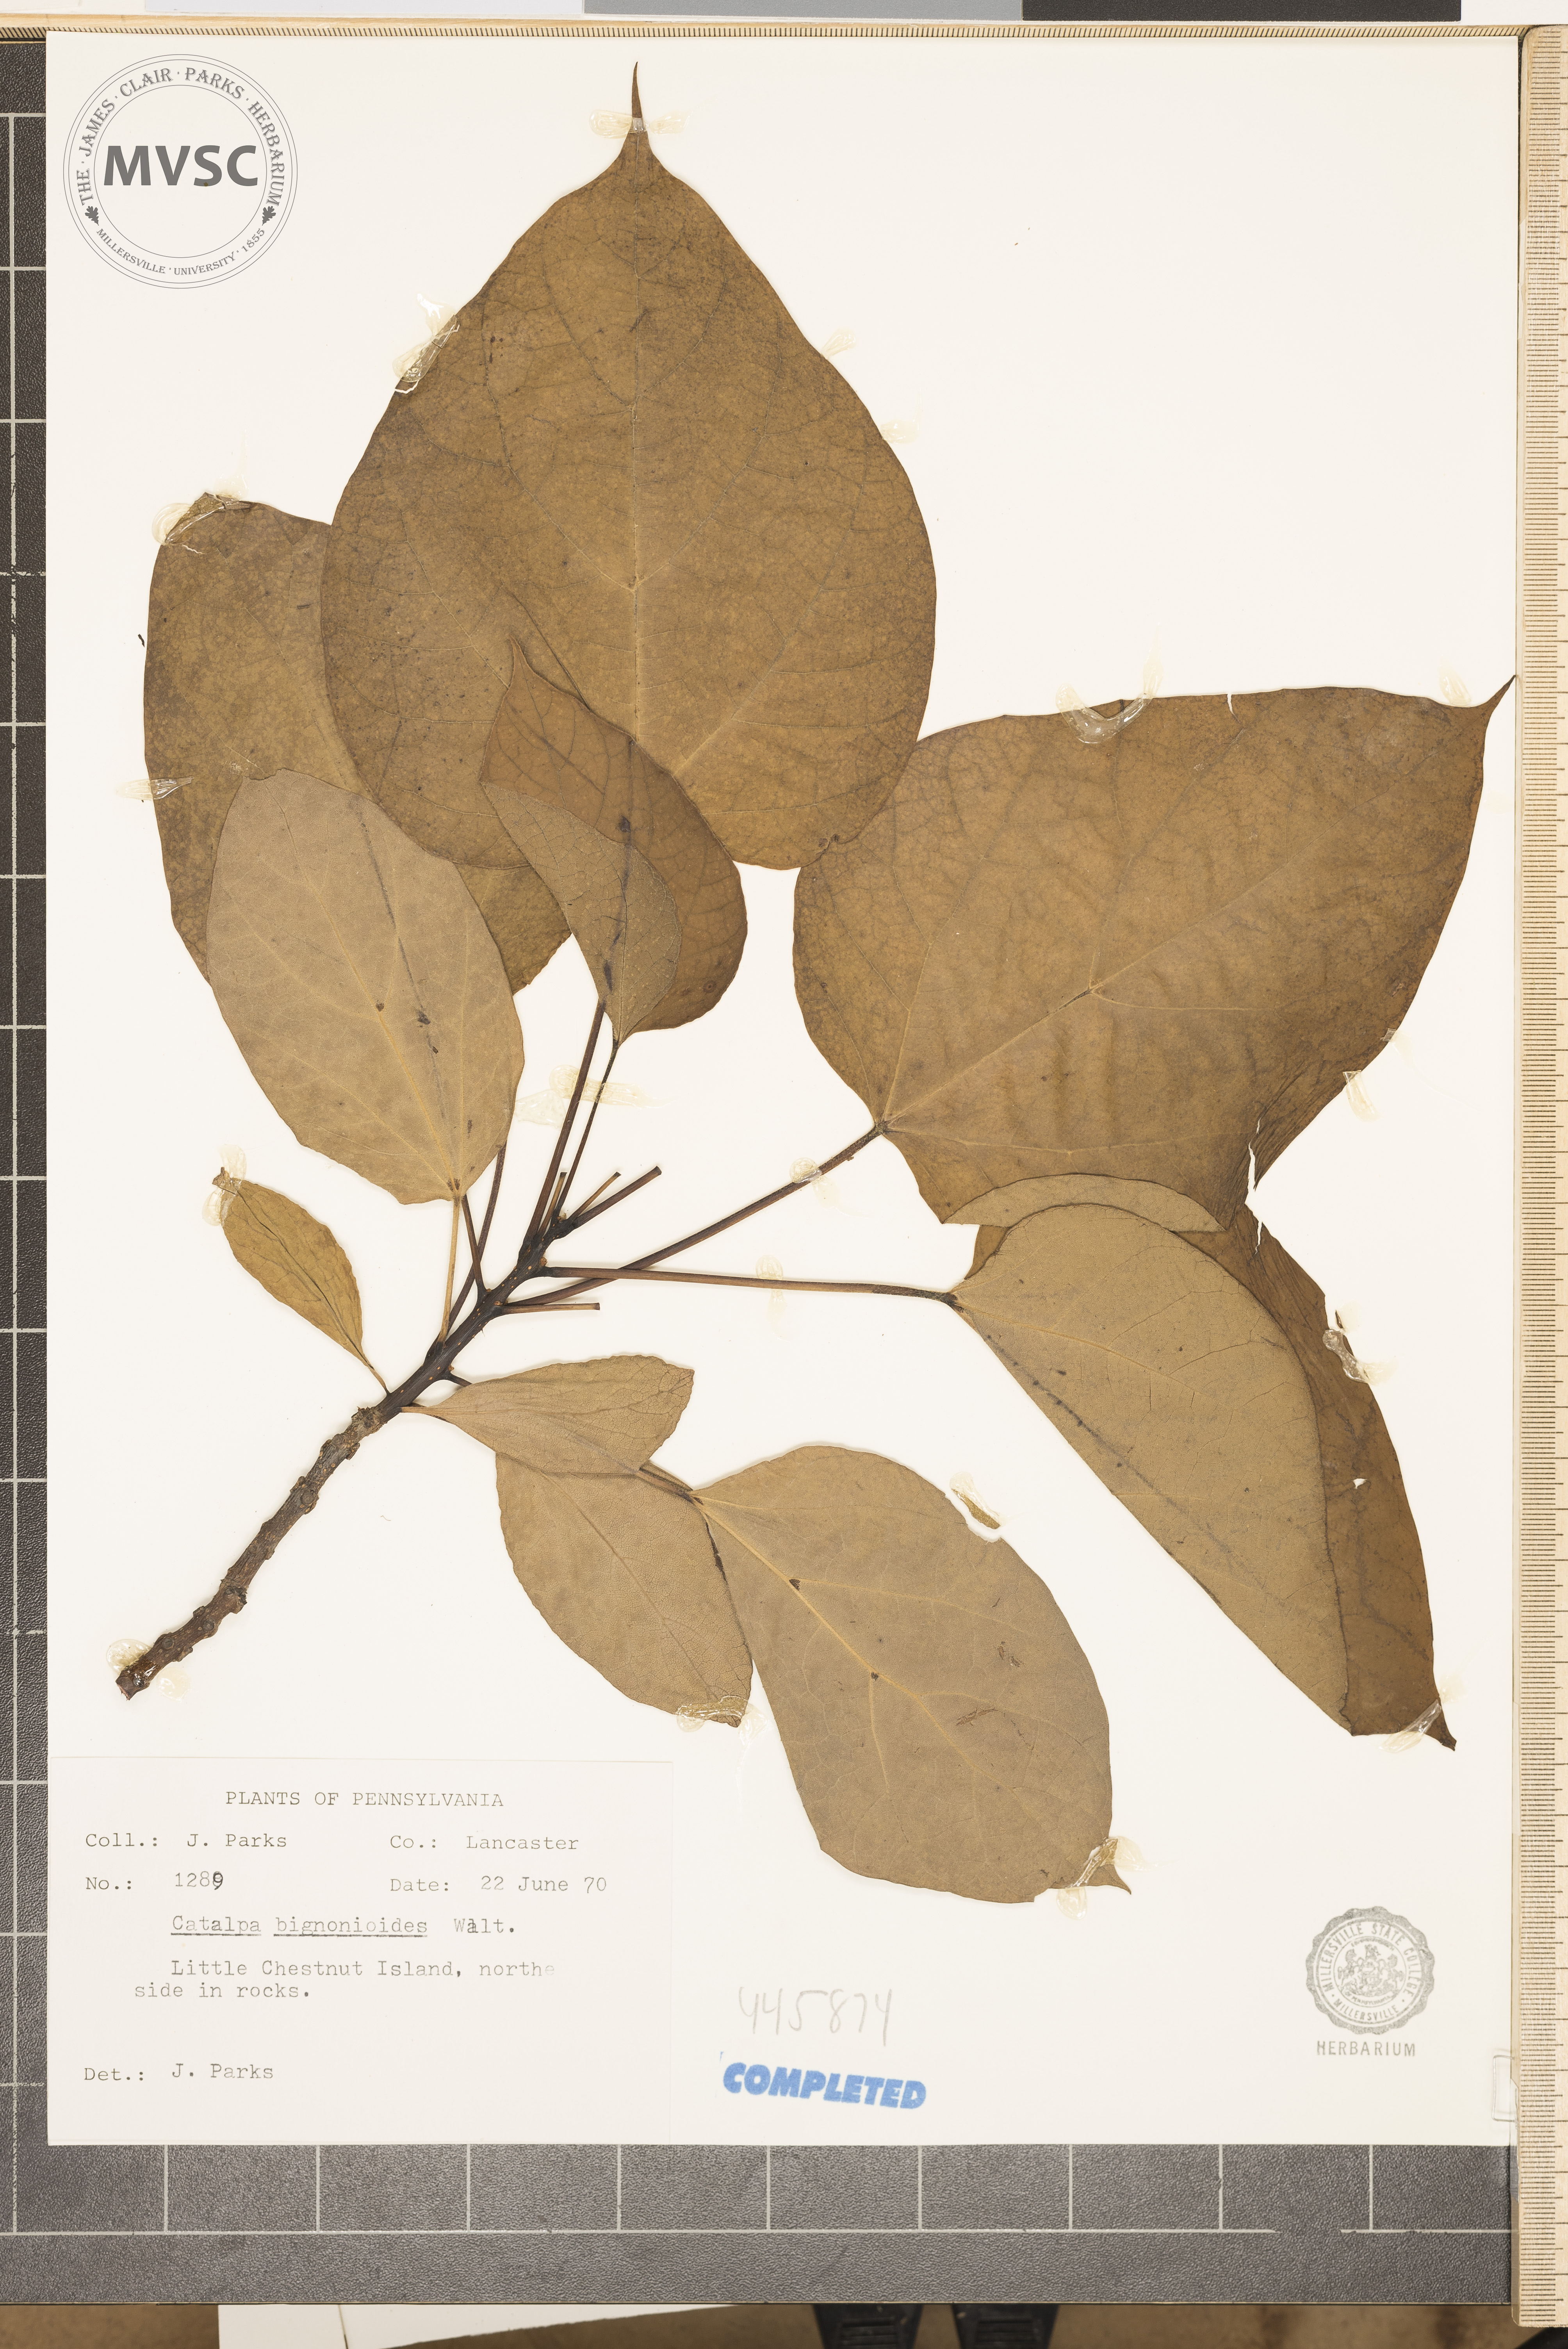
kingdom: Plantae
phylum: Tracheophyta
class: Magnoliopsida
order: Lamiales
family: Bignoniaceae
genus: Catalpa
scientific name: Catalpa bignonioides
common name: Southern catalpa
